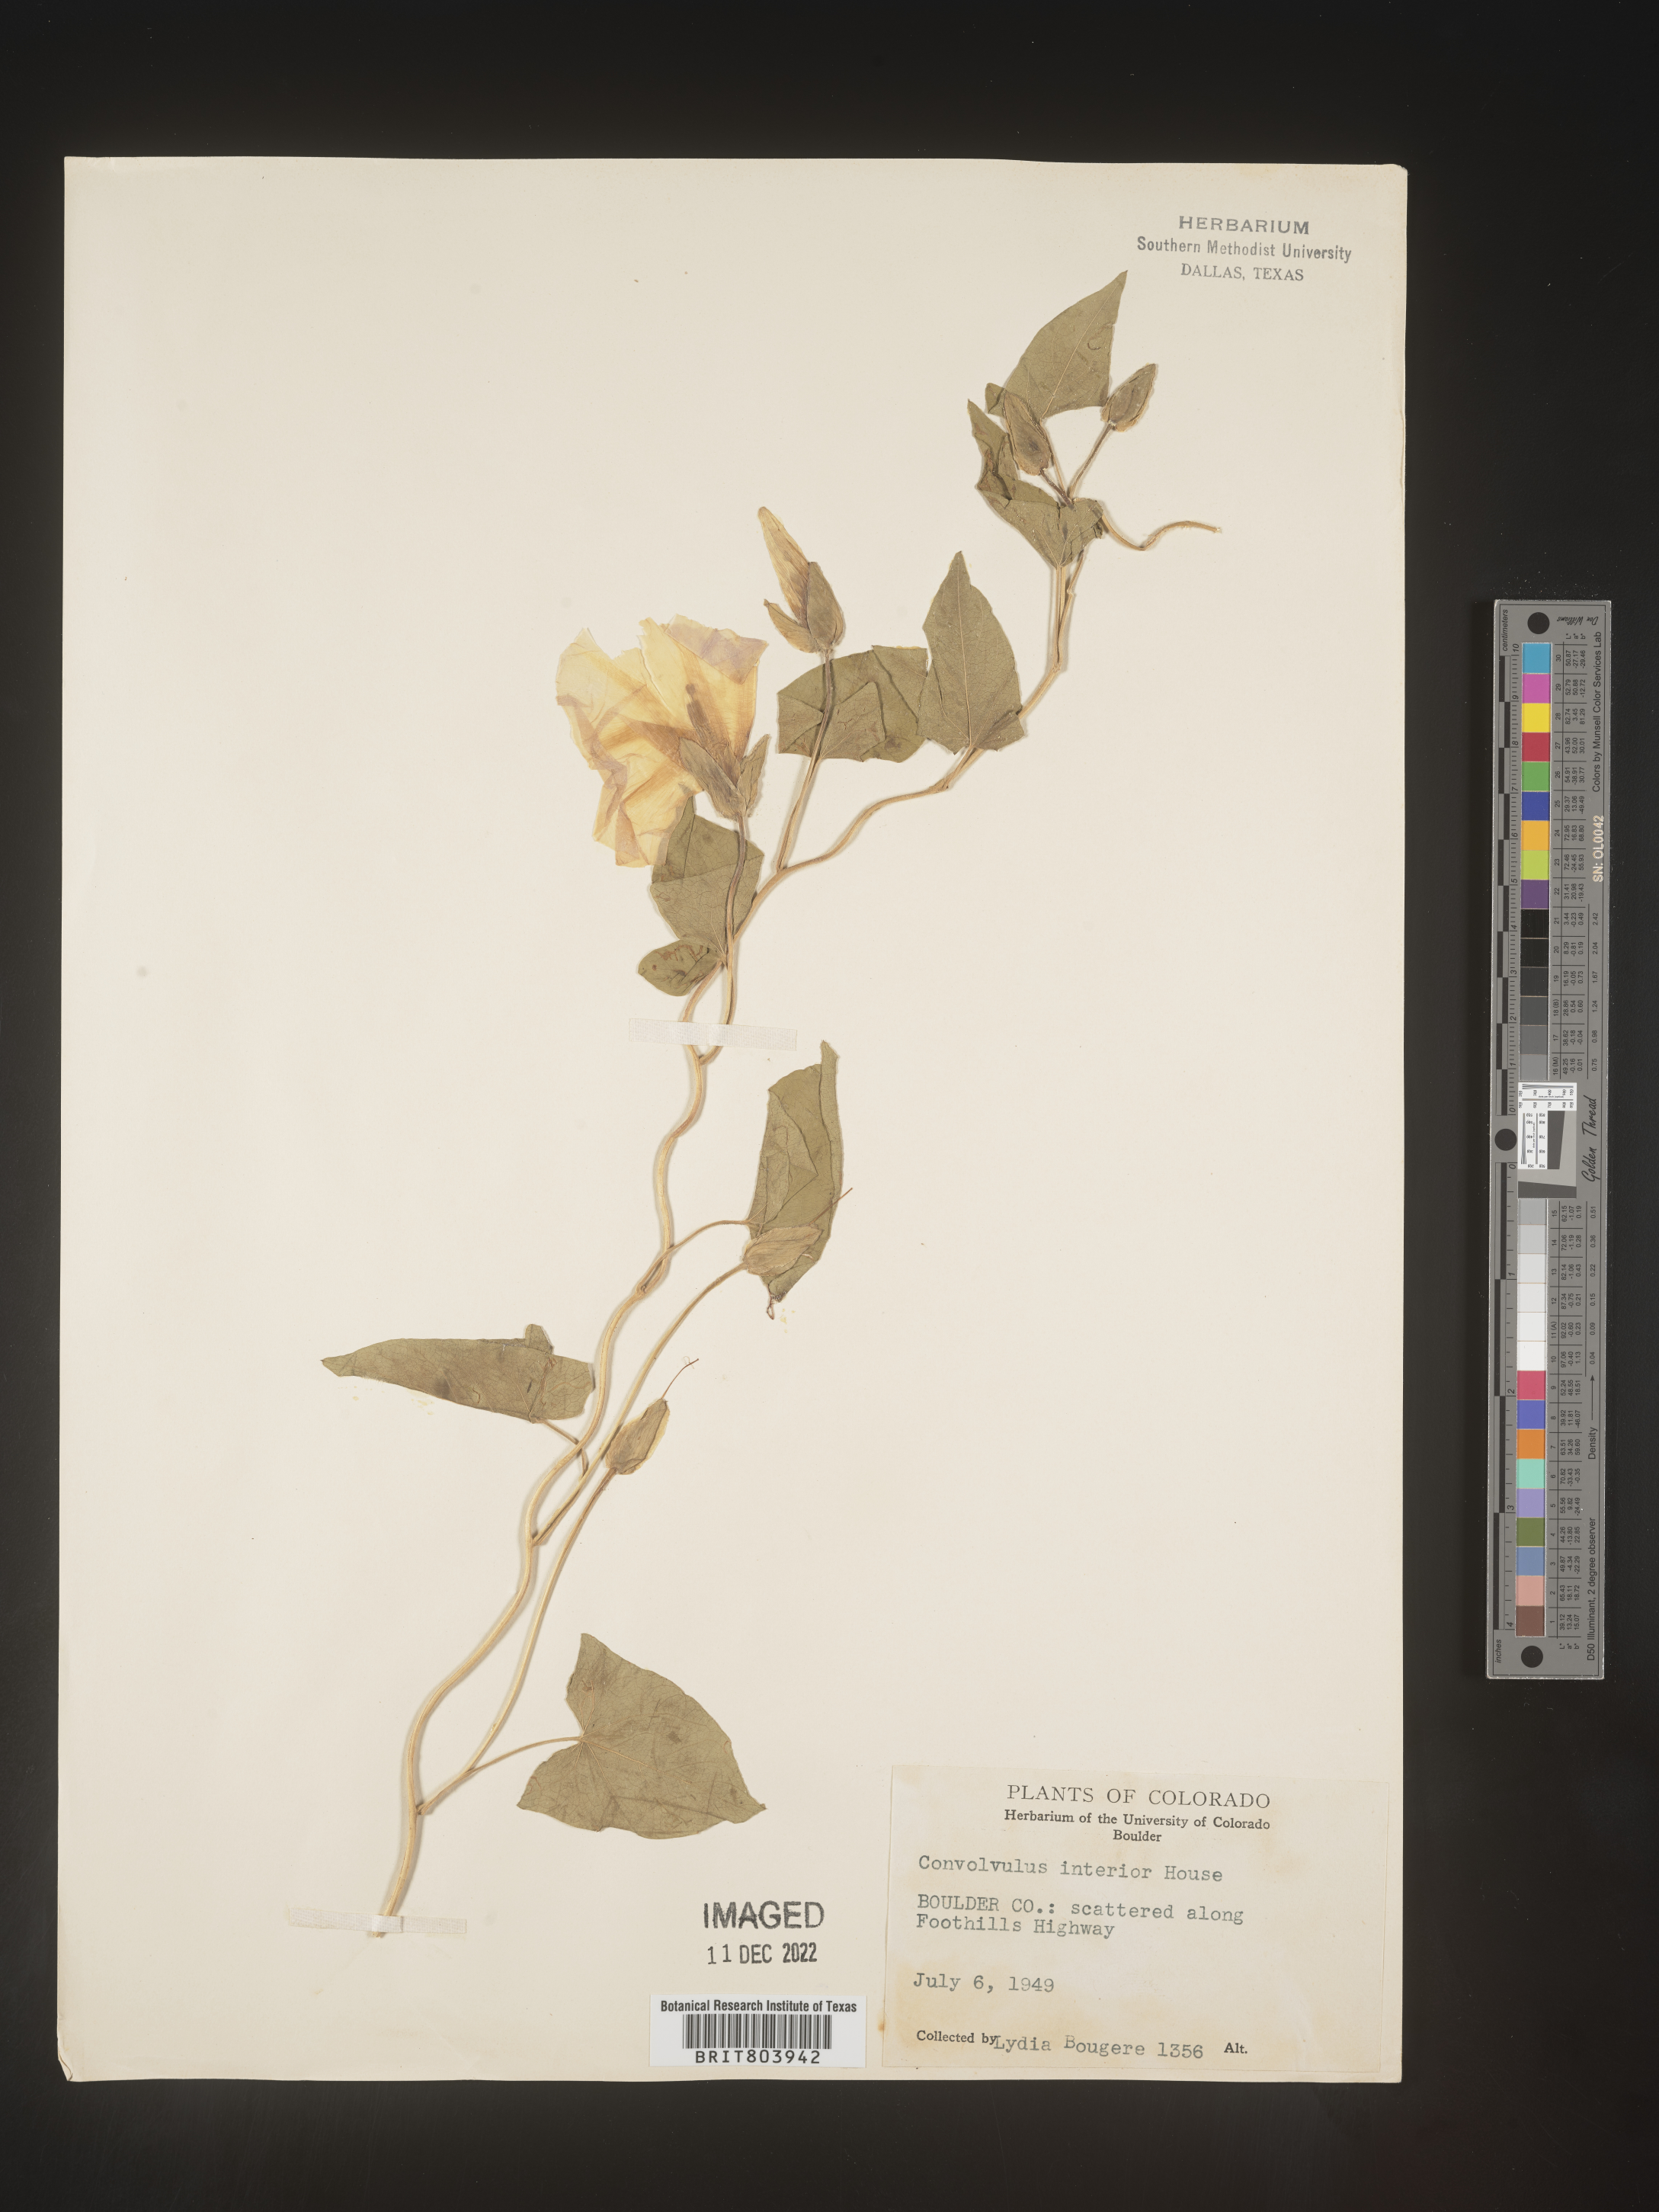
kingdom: Plantae
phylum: Tracheophyta
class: Magnoliopsida
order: Solanales
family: Convolvulaceae
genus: Calystegia
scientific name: Calystegia sepium
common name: Hedge bindweed
